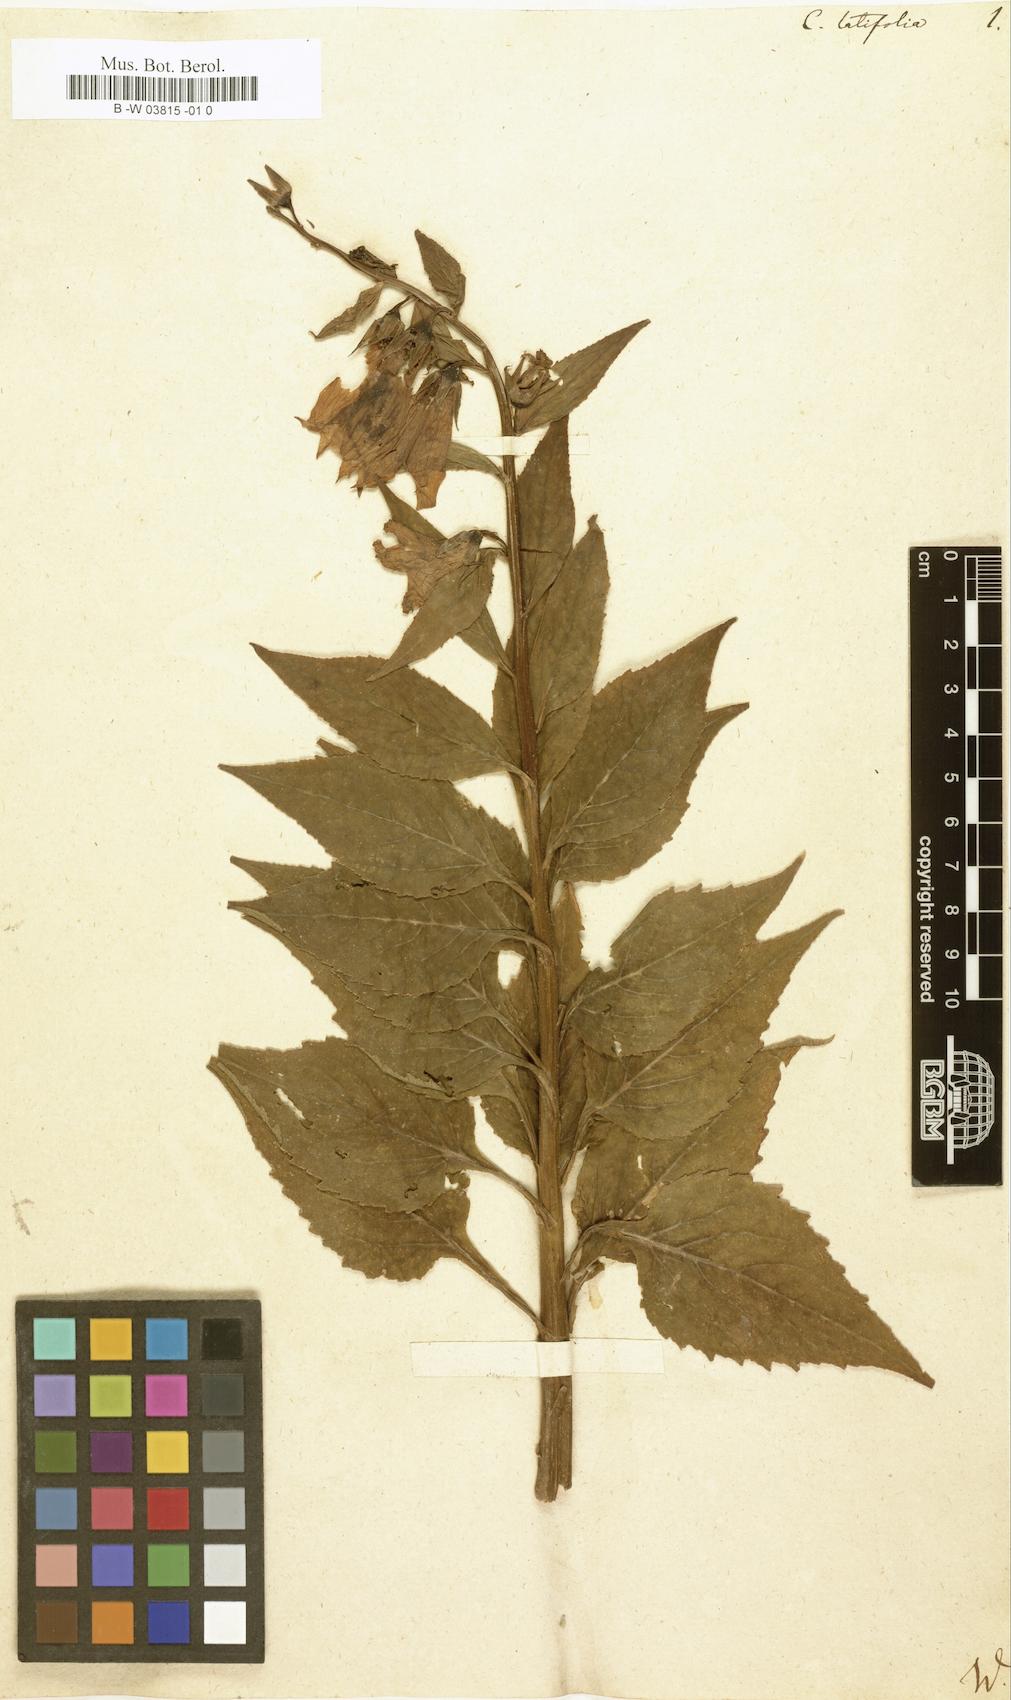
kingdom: Plantae
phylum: Tracheophyta
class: Magnoliopsida
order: Asterales
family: Campanulaceae
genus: Campanula
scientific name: Campanula latifolia
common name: Giant bellflower
